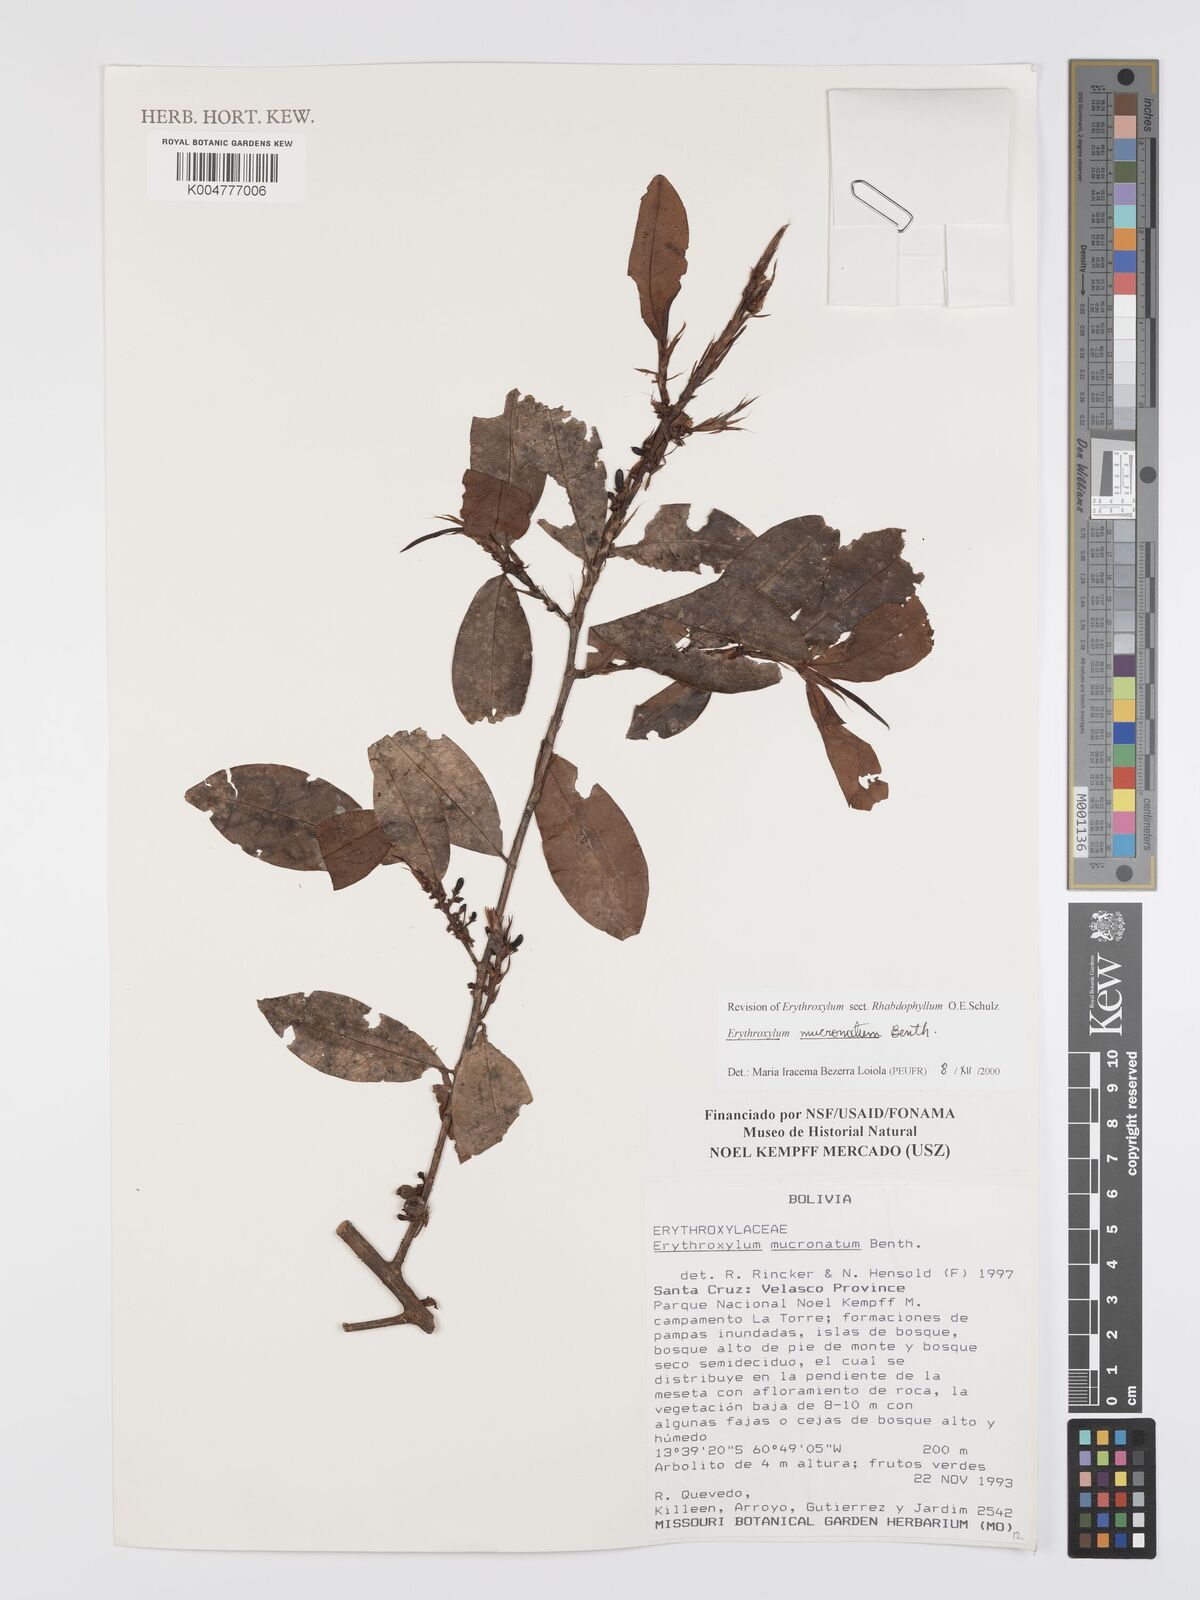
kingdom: Plantae
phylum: Tracheophyta
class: Magnoliopsida
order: Malpighiales
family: Erythroxylaceae
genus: Erythroxylum
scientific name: Erythroxylum mucronatum
